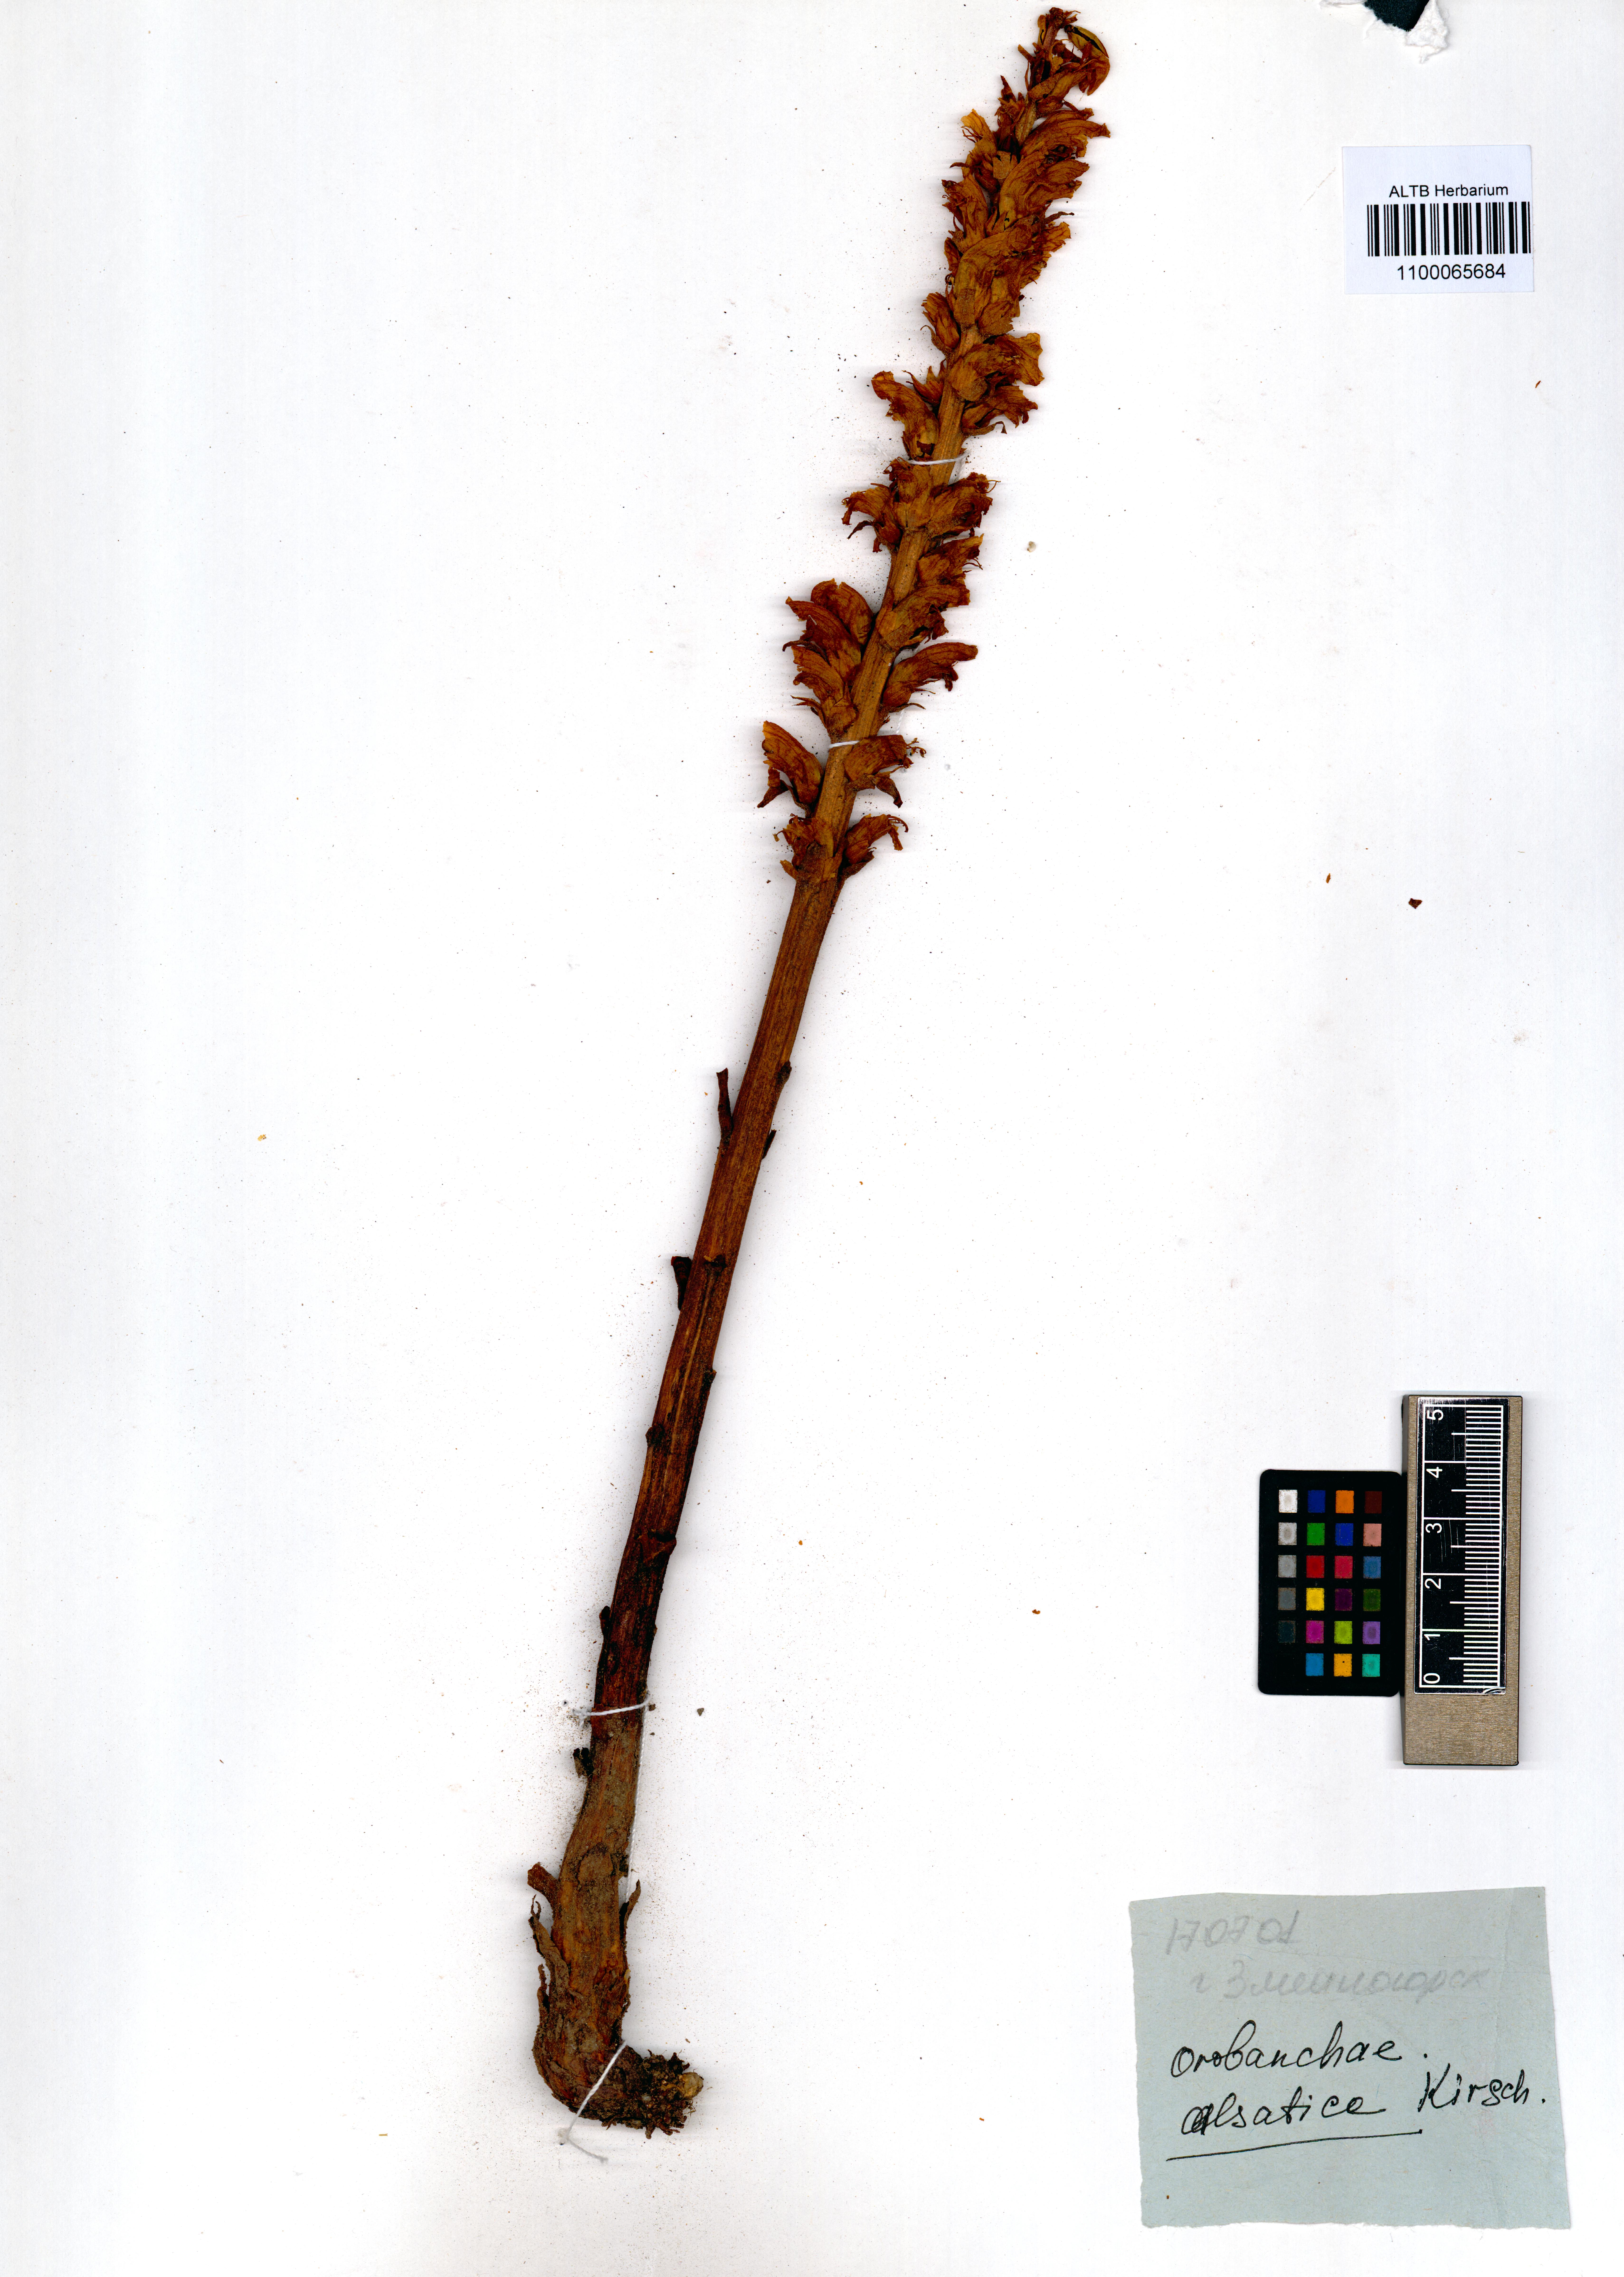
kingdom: Plantae
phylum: Tracheophyta
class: Magnoliopsida
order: Lamiales
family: Orobanchaceae
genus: Orobanche
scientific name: Orobanche alsatica
